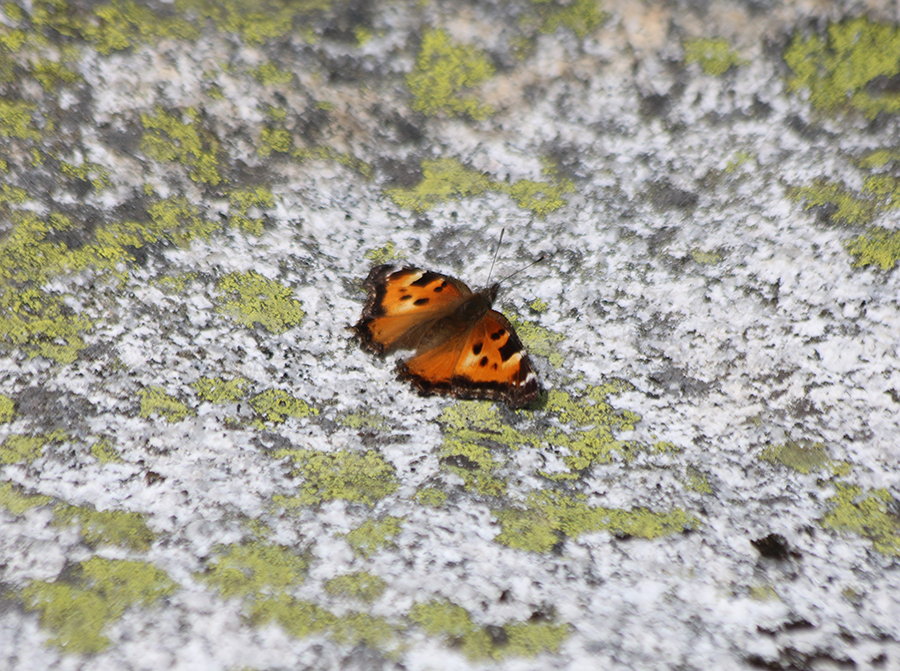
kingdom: Animalia
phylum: Arthropoda
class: Insecta
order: Lepidoptera
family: Nymphalidae
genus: Nymphalis
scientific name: Nymphalis californica
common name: California Tortoiseshell
